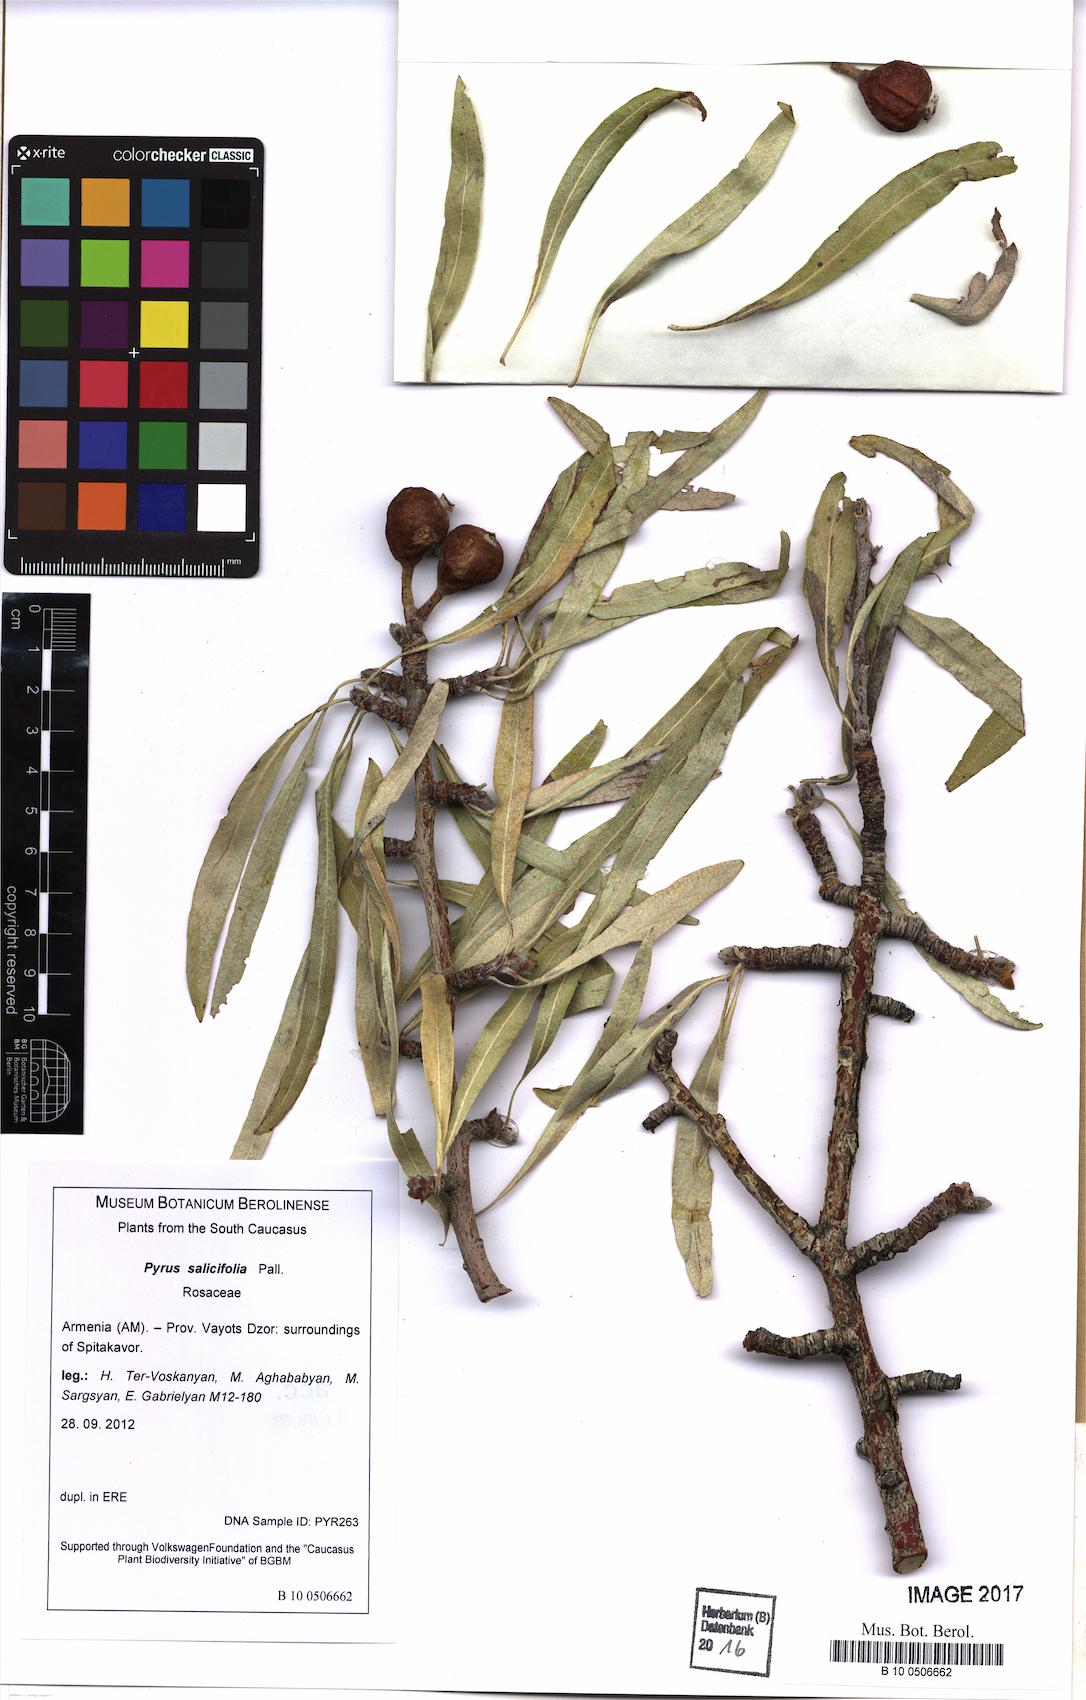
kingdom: Plantae
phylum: Tracheophyta
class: Magnoliopsida
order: Rosales
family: Rosaceae
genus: Pyrus
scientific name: Pyrus salicifolia
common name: Willow-leaved pear
